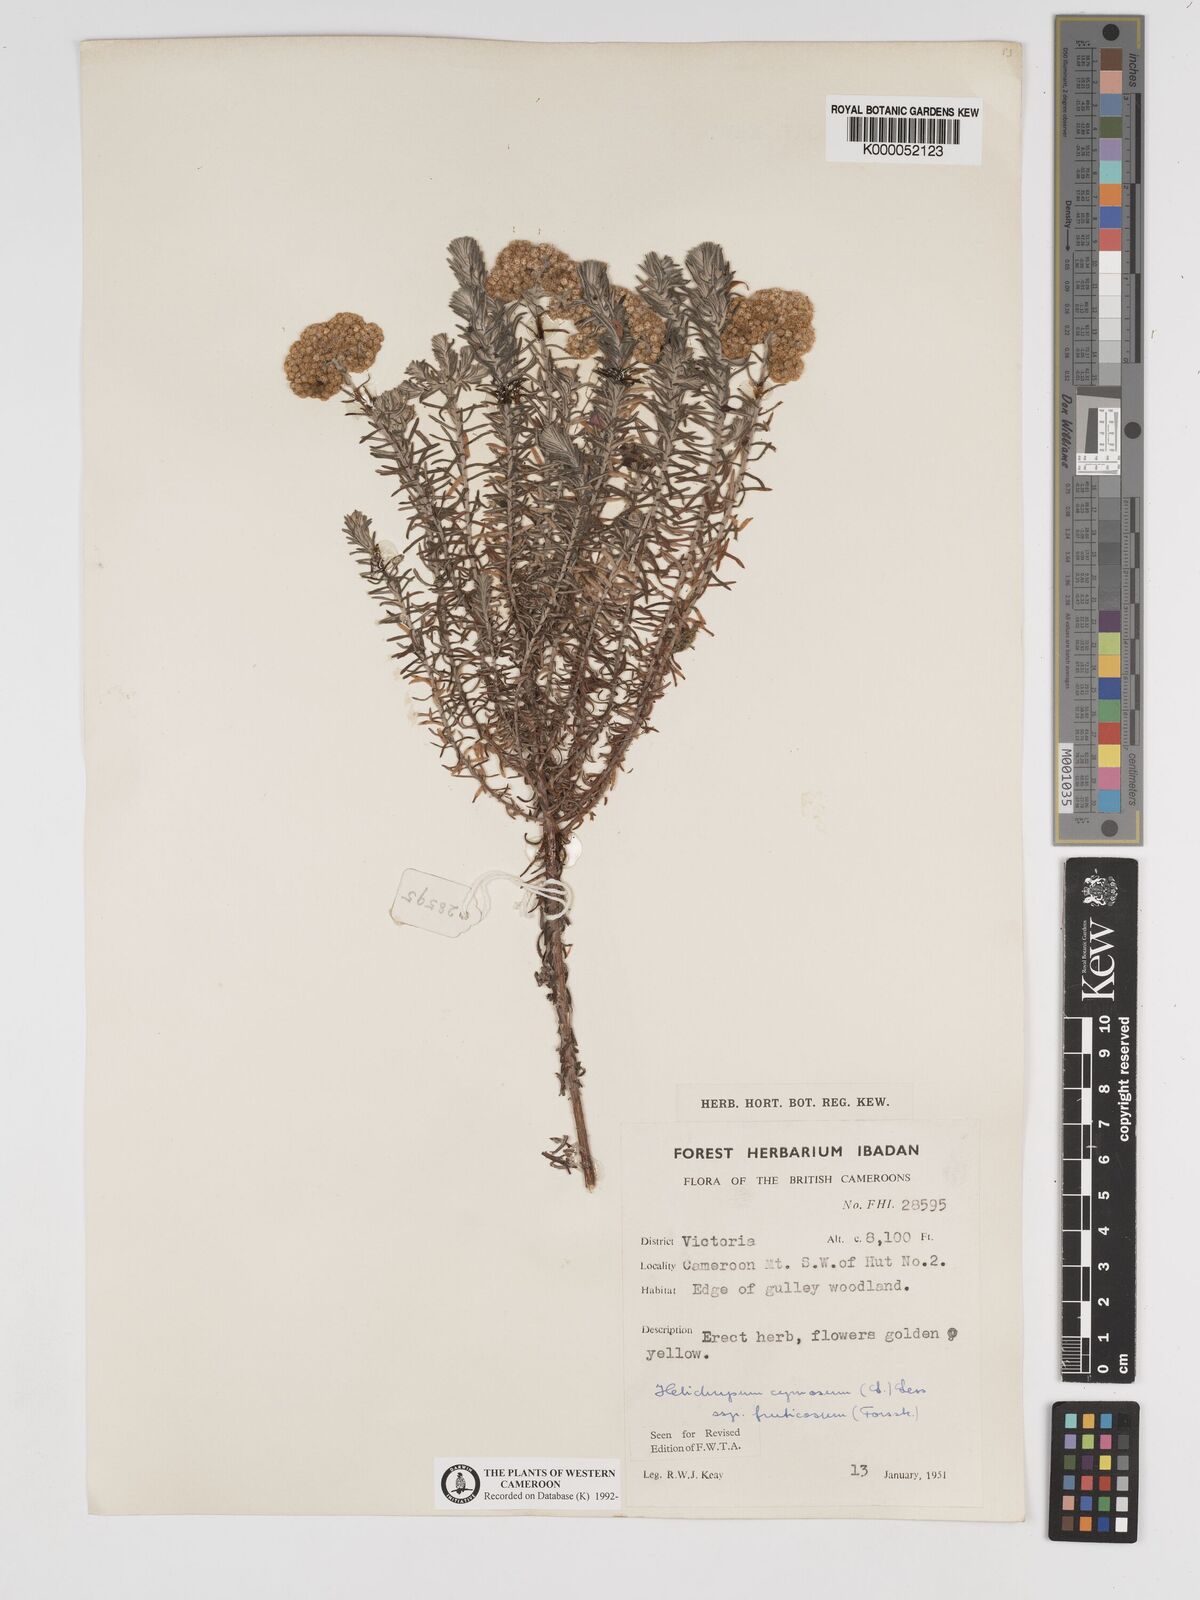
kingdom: Plantae
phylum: Tracheophyta
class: Magnoliopsida
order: Asterales
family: Asteraceae
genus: Helichrysum
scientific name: Helichrysum forskahlii
